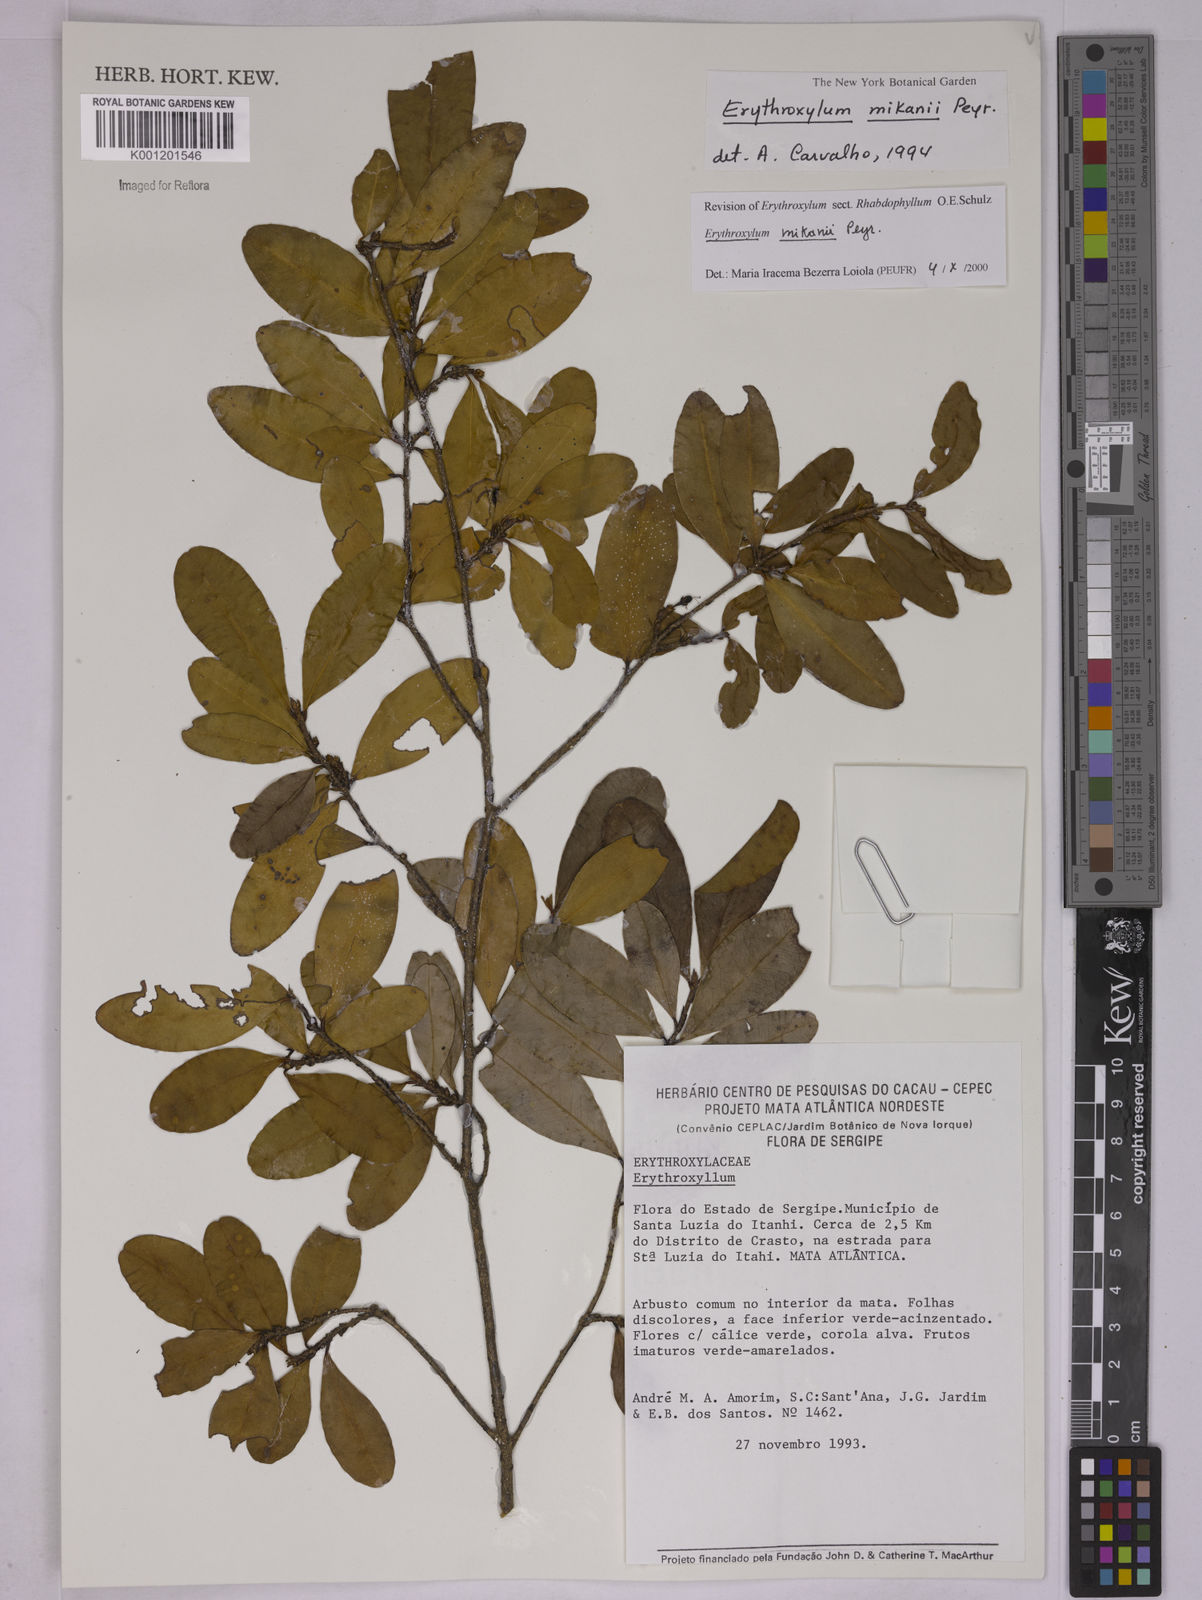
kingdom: Plantae
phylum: Tracheophyta
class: Magnoliopsida
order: Malpighiales
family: Erythroxylaceae
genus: Erythroxylum
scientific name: Erythroxylum mikanii
